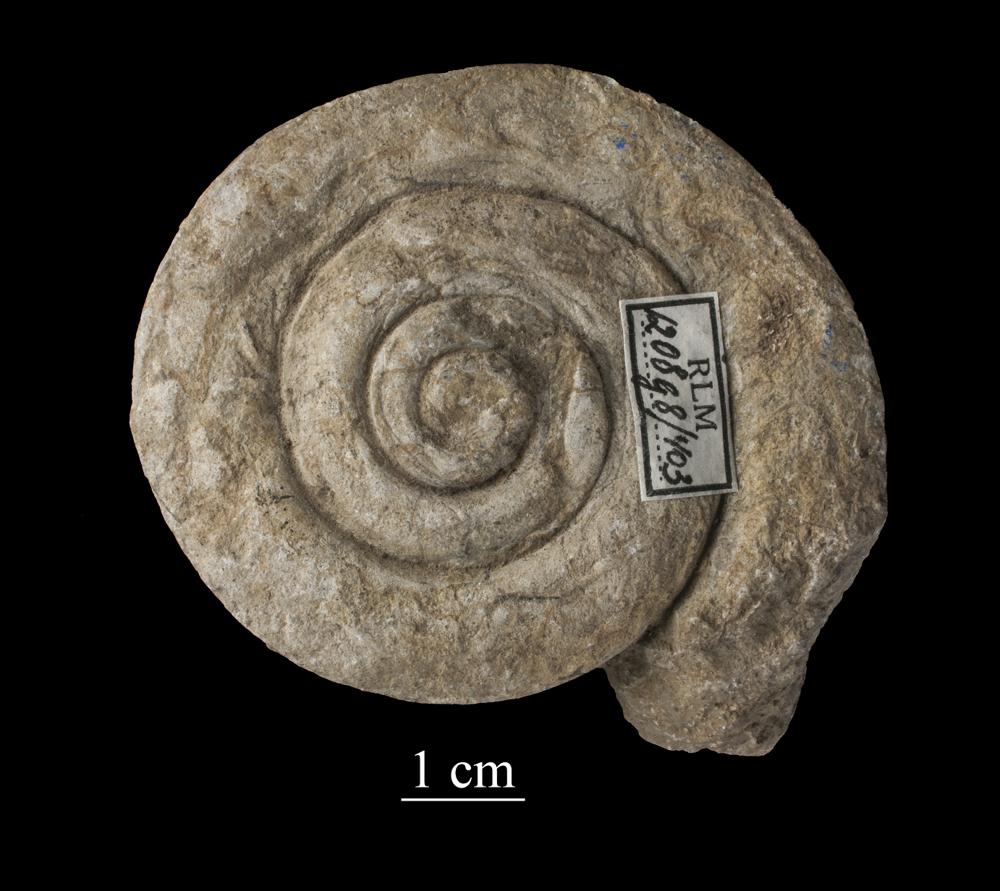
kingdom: Animalia
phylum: Mollusca
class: Gastropoda
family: Euomphalidae
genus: Euomphalus
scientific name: Euomphalus
